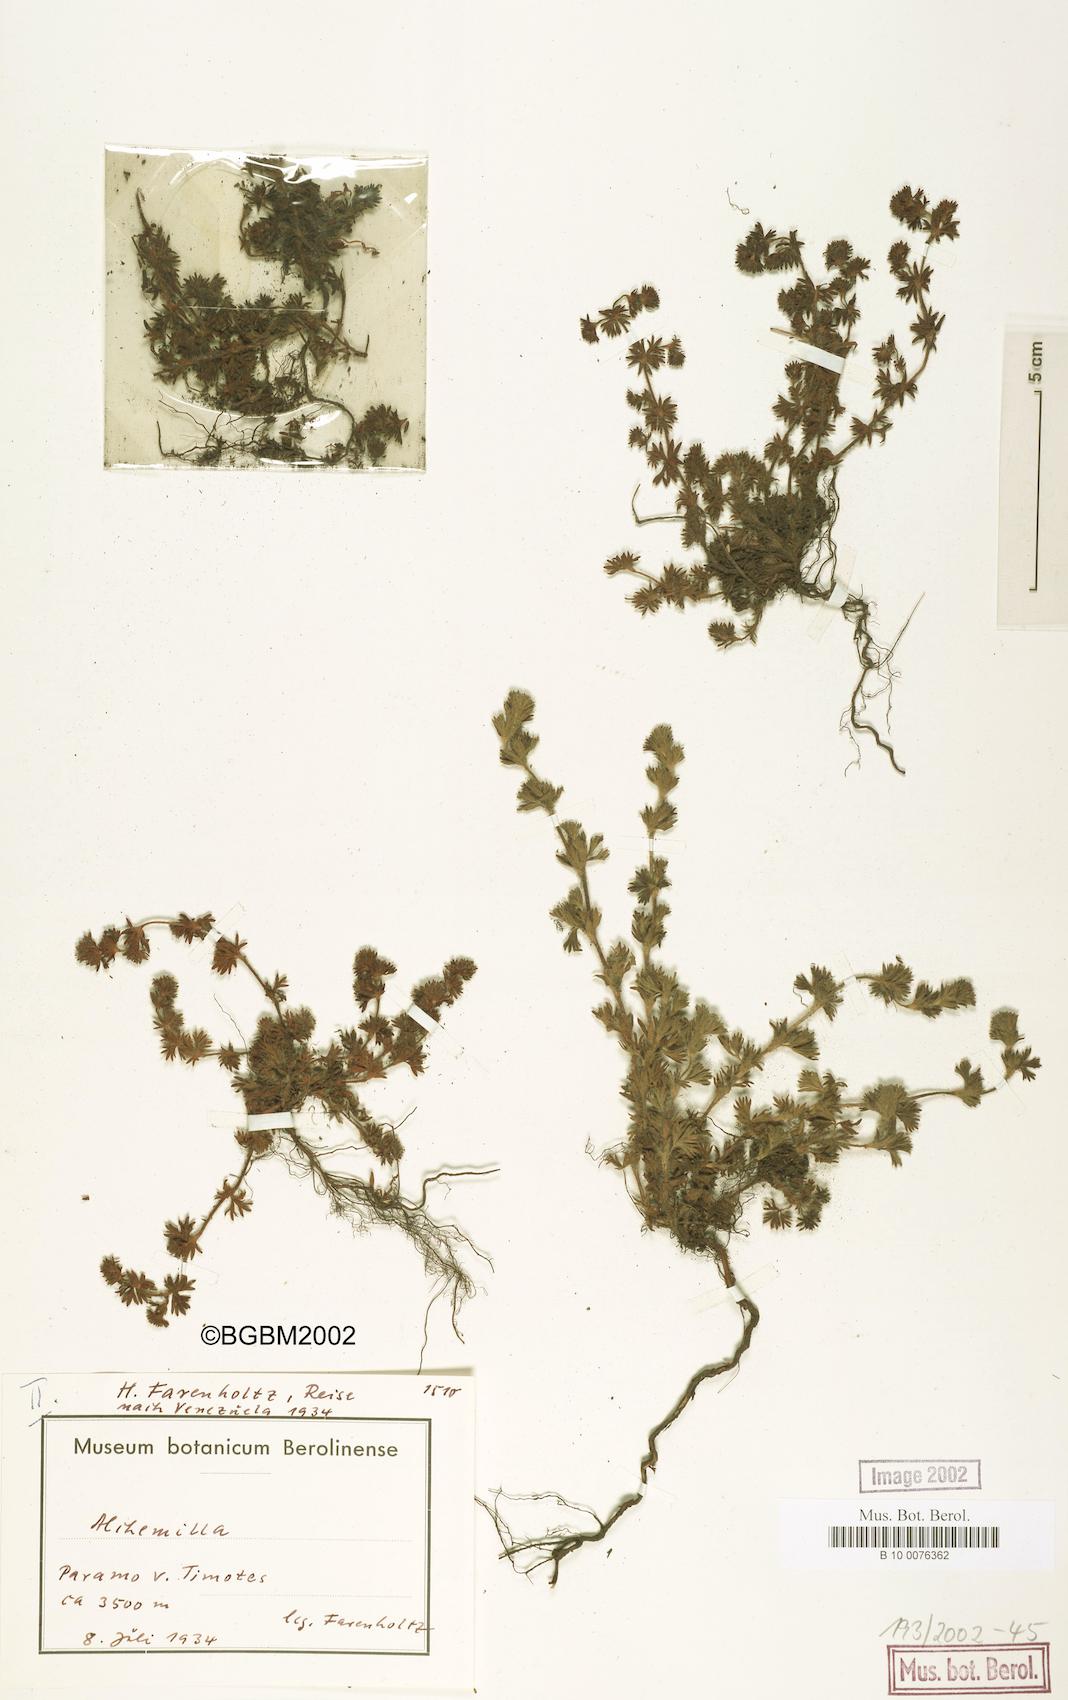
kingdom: Plantae
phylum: Tracheophyta
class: Magnoliopsida
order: Rosales
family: Rosaceae
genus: Lachemilla
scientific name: Lachemilla
